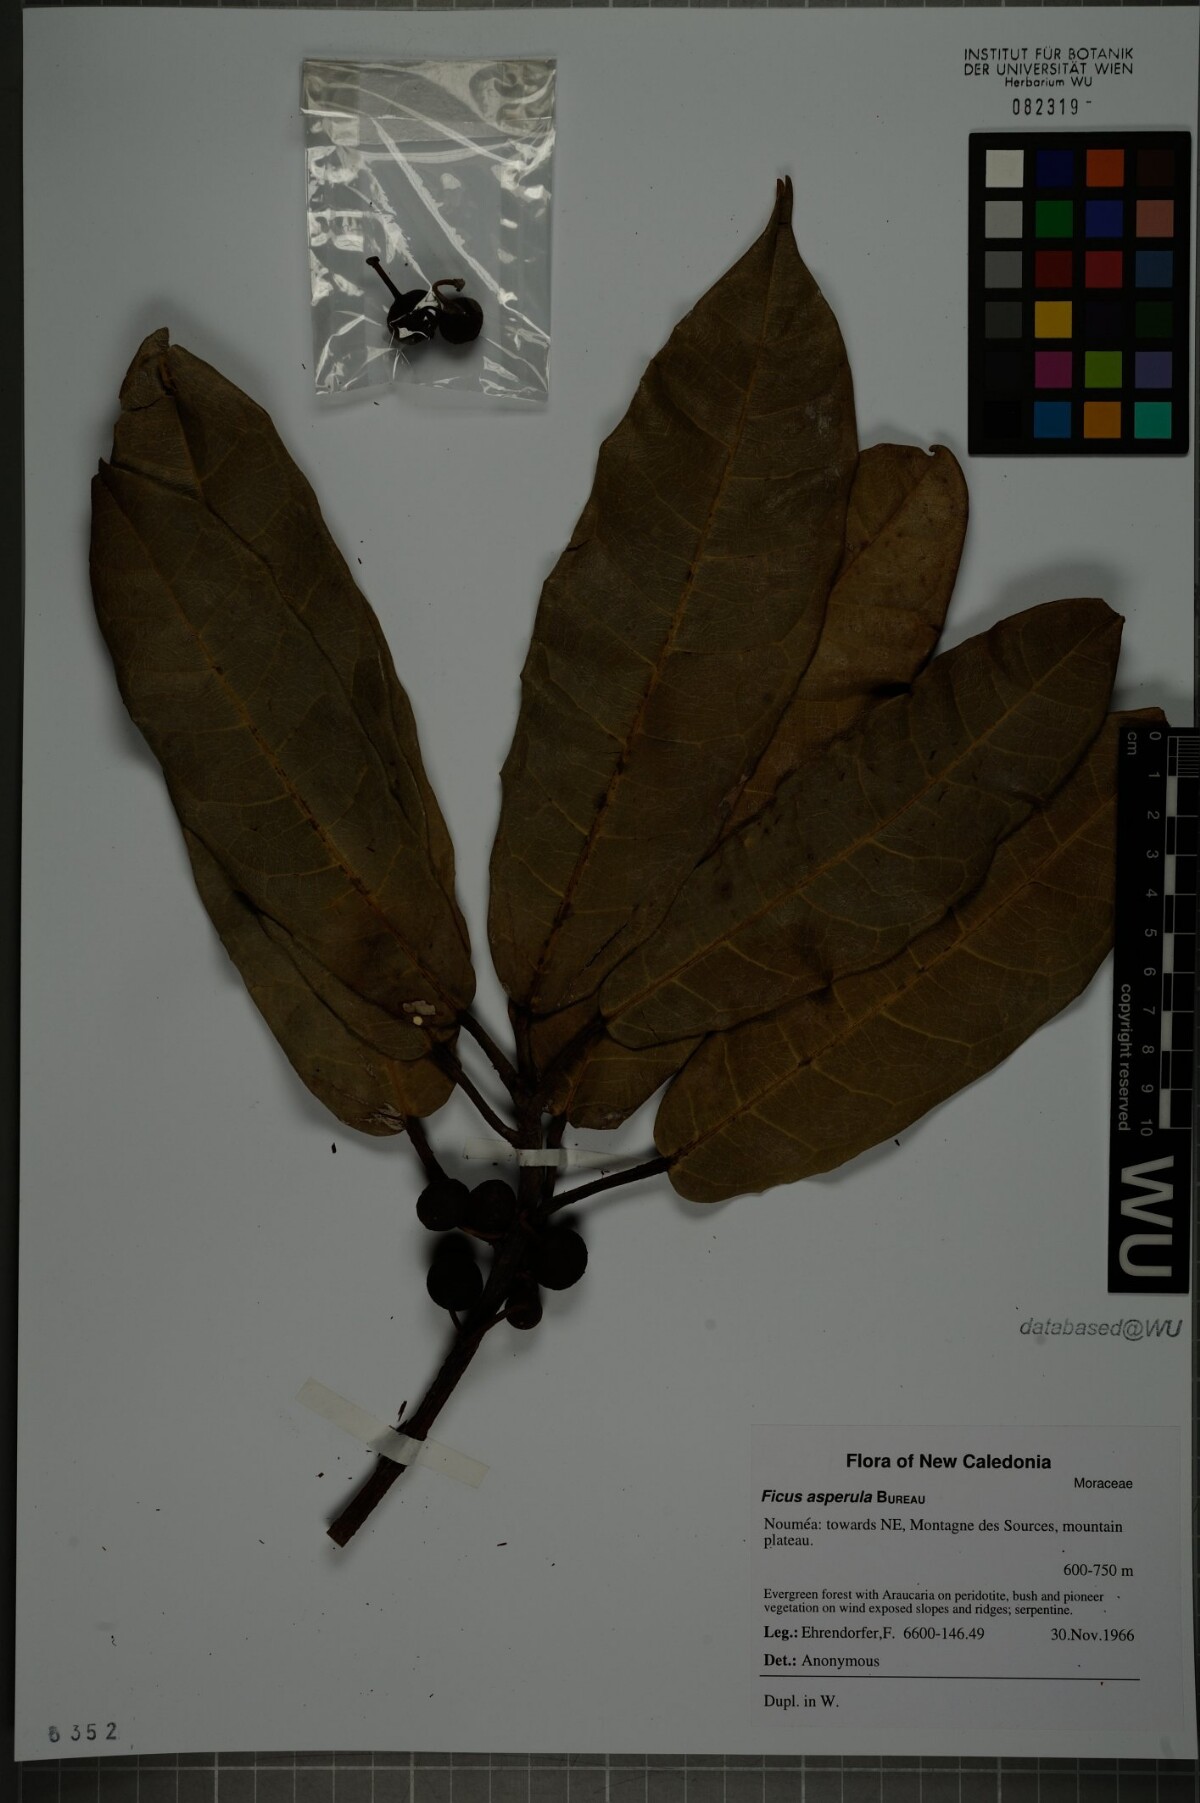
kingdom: Plantae
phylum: Tracheophyta
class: Magnoliopsida
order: Rosales
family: Moraceae
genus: Ficus
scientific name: Ficus asperula
